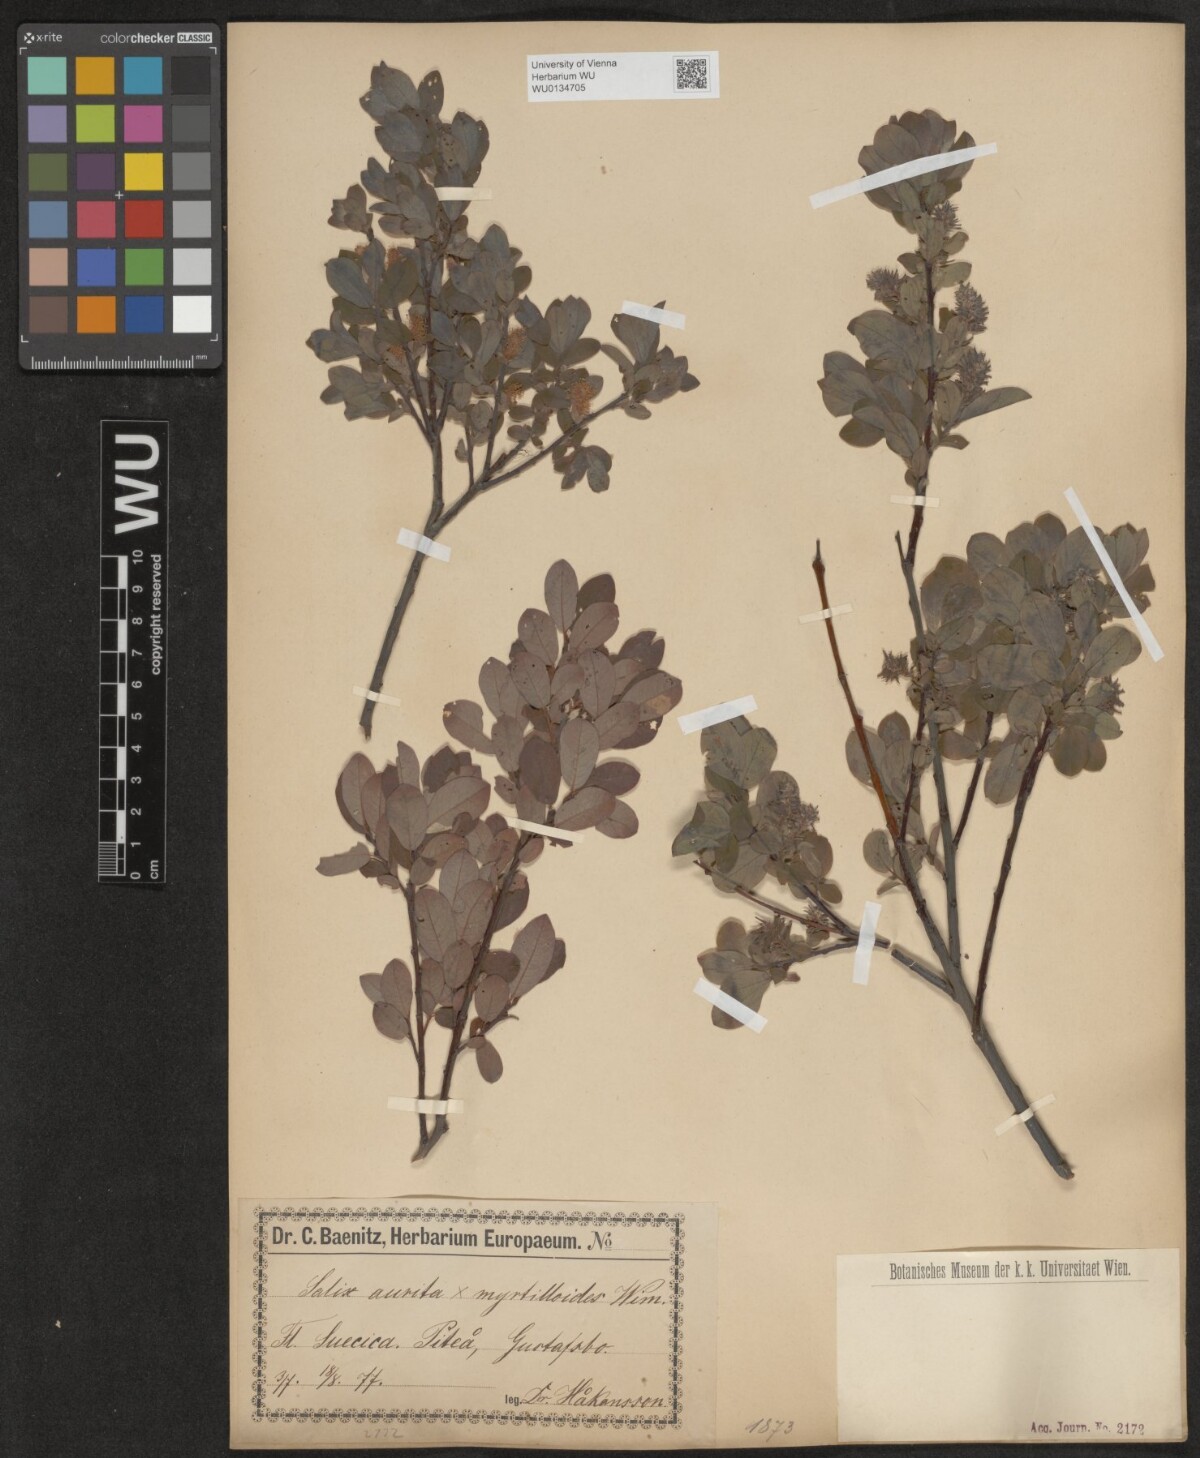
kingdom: Plantae
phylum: Tracheophyta
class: Magnoliopsida
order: Malpighiales
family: Salicaceae
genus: Salix
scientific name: Salix
